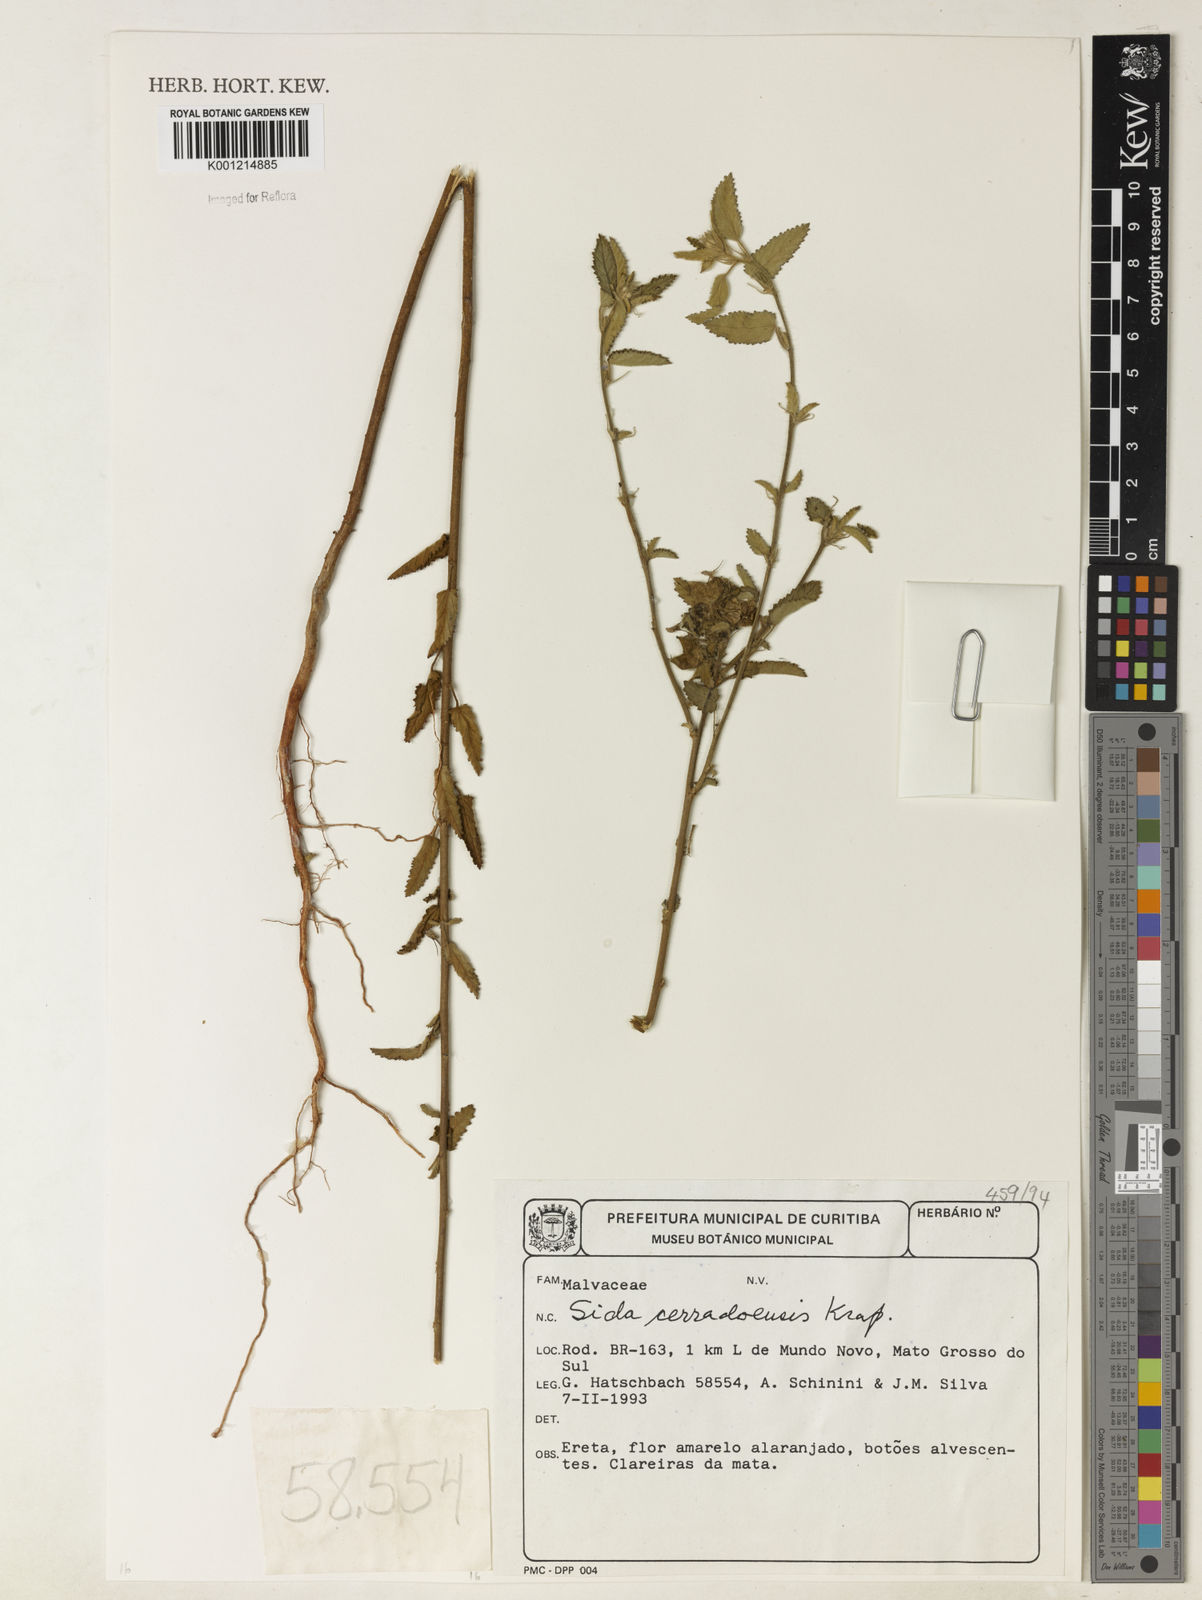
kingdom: Plantae
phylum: Tracheophyta
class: Magnoliopsida
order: Malvales
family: Malvaceae
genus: Sida
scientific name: Sida cerradoensis
